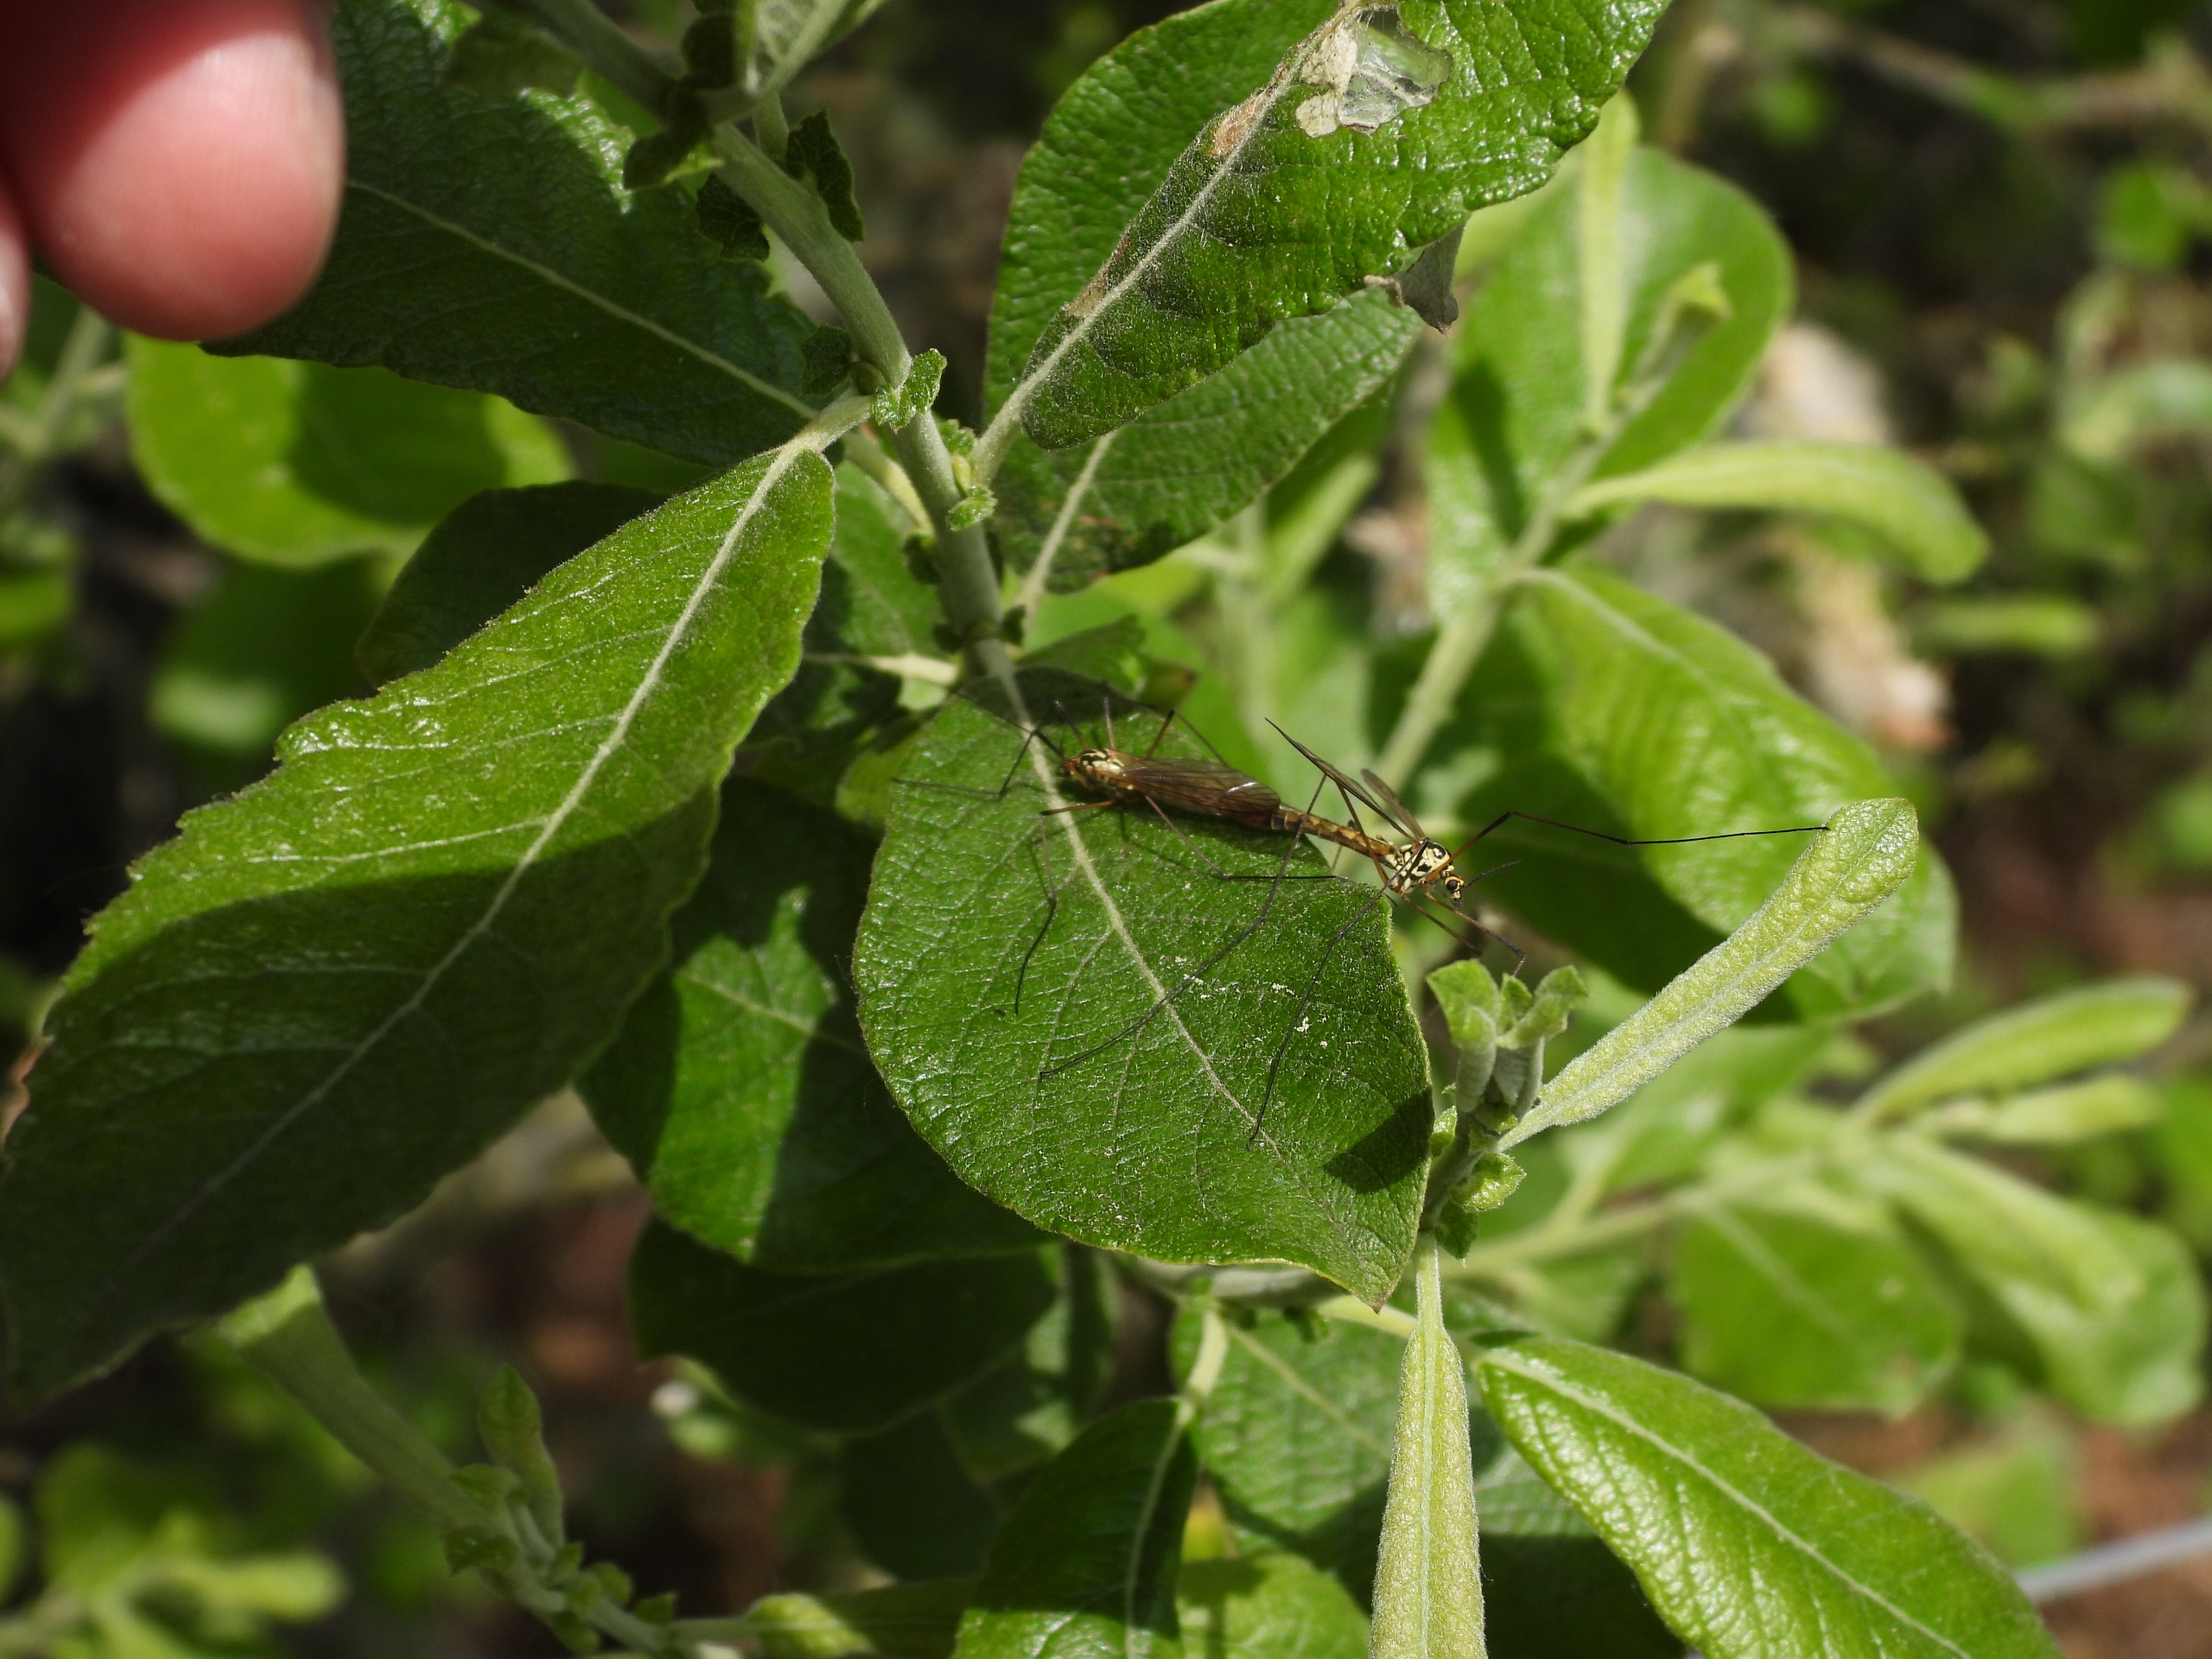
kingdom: Animalia
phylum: Arthropoda
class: Insecta
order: Diptera
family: Tipulidae
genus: Nephrotoma
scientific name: Nephrotoma appendiculata
